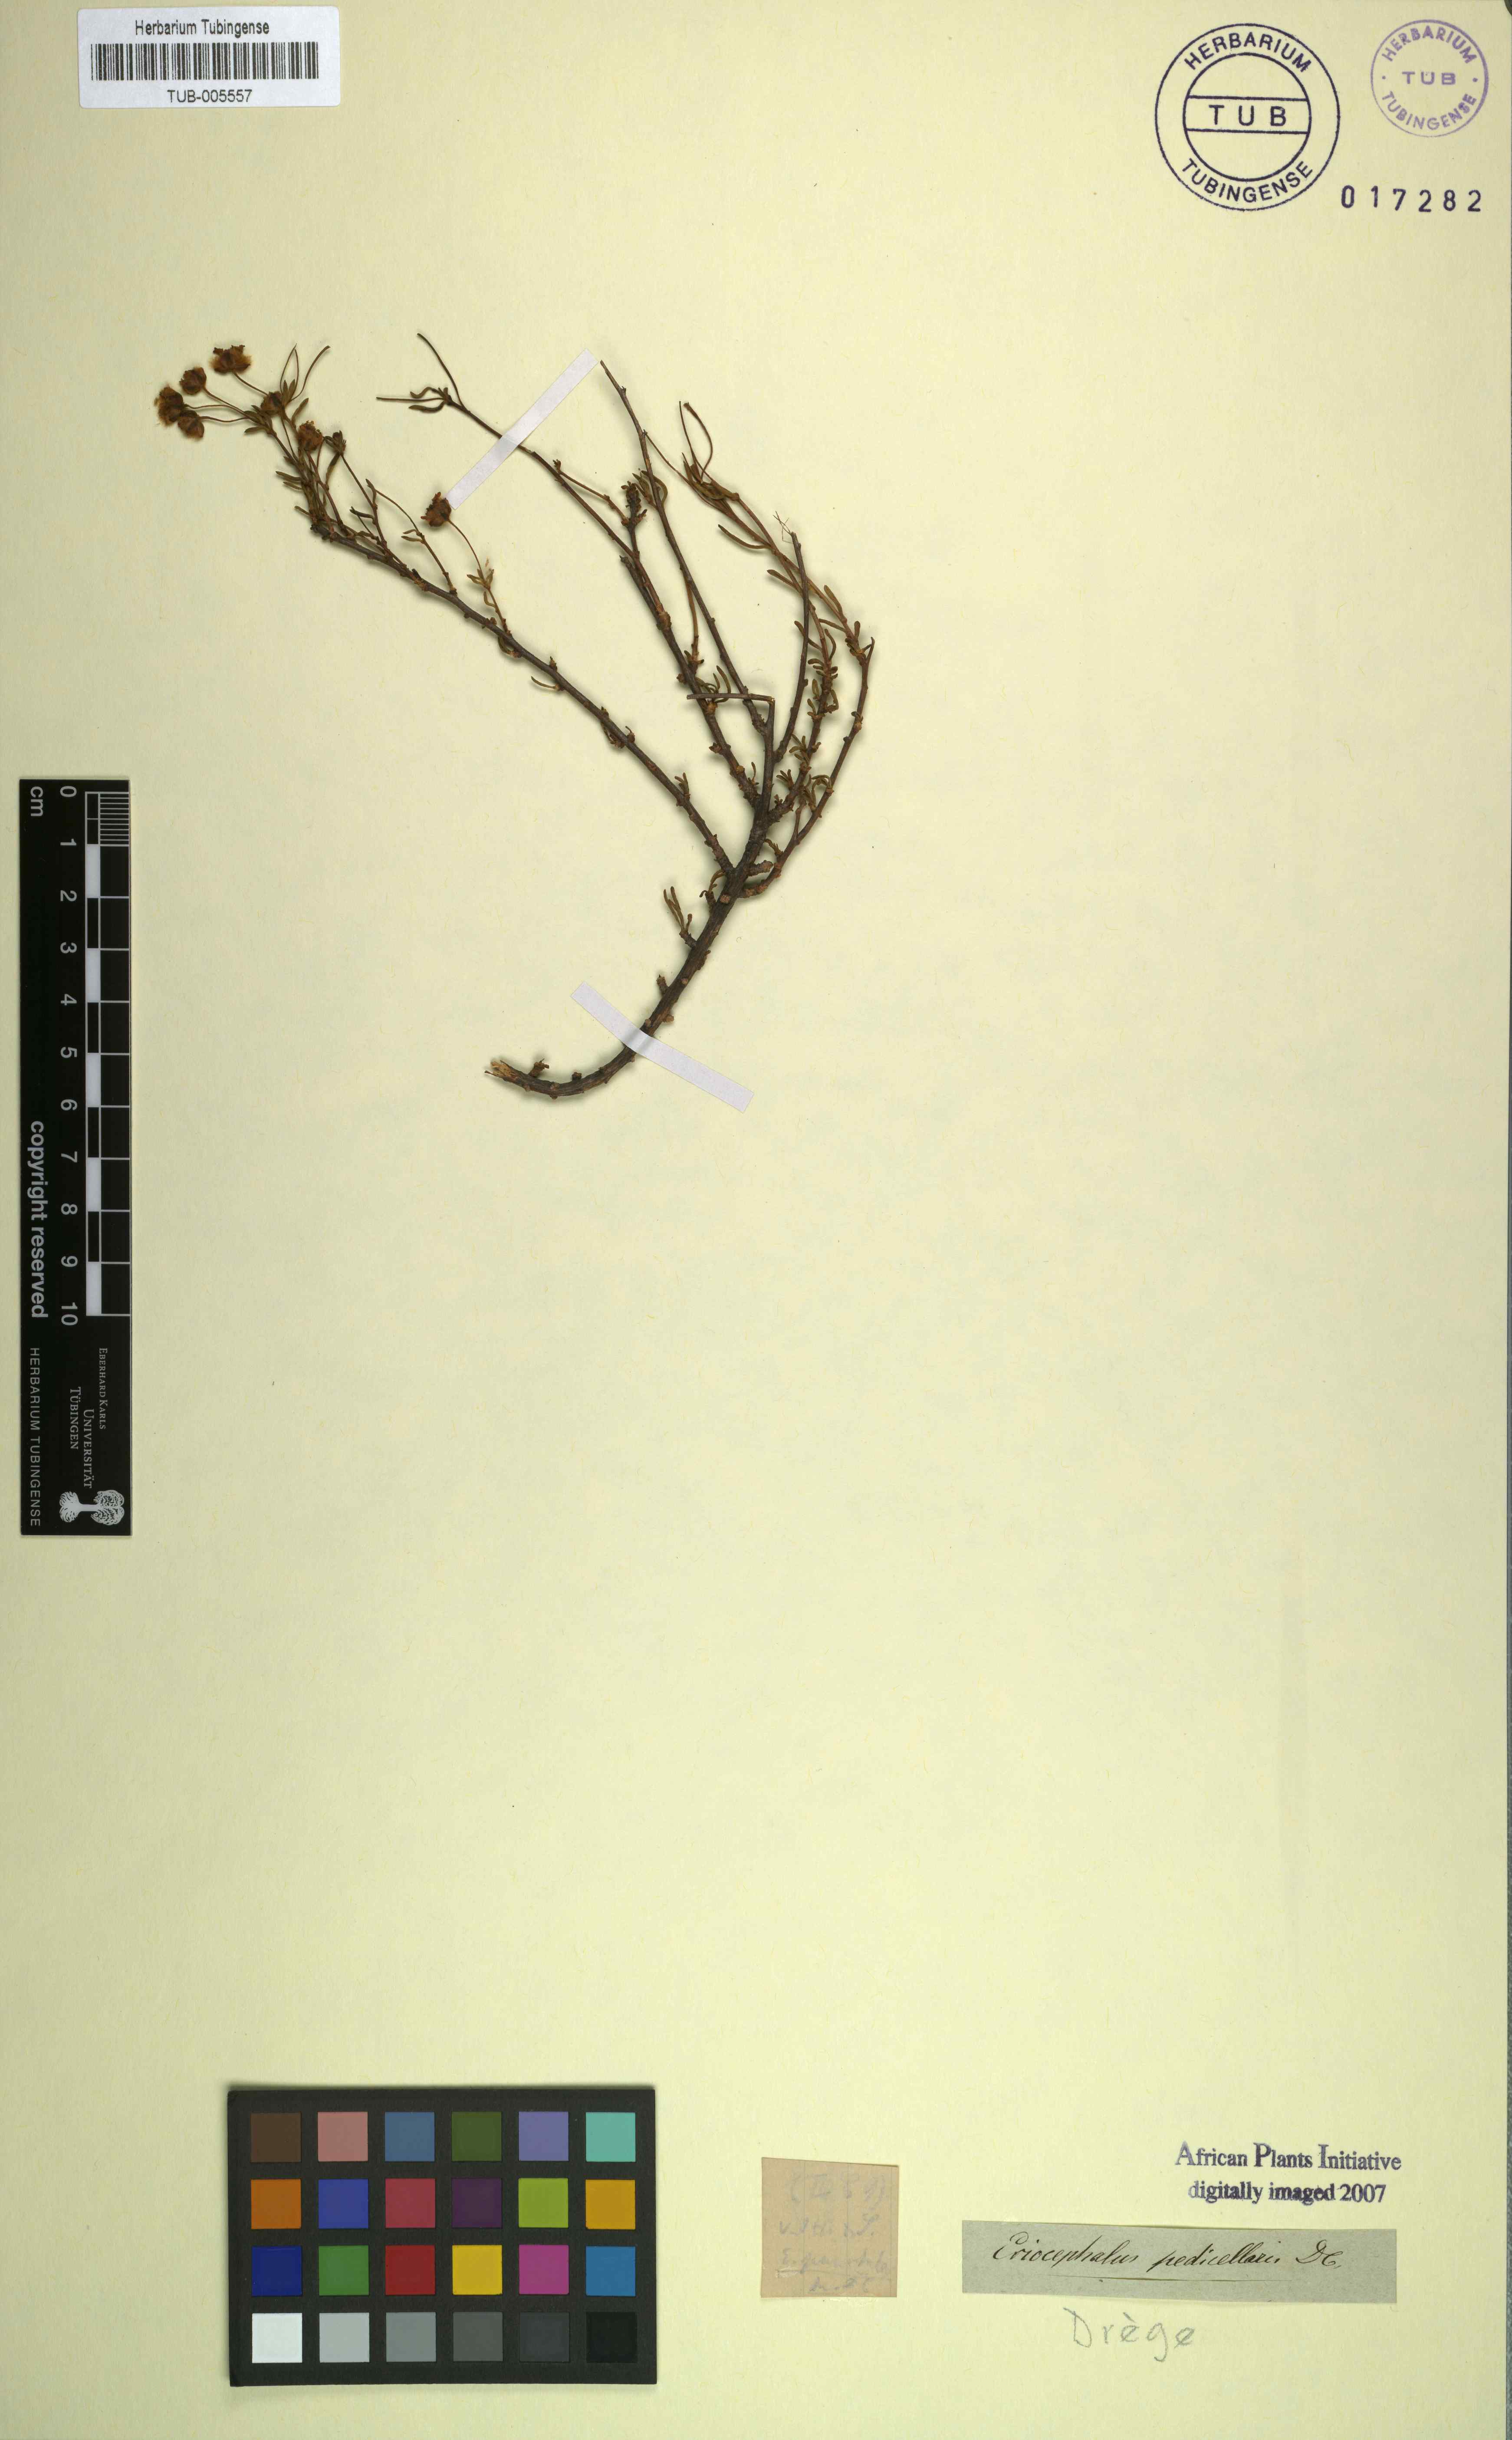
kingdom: Plantae
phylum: Tracheophyta
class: Magnoliopsida
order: Asterales
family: Asteraceae
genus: Eriocephalus
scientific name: Eriocephalus punctulatus
